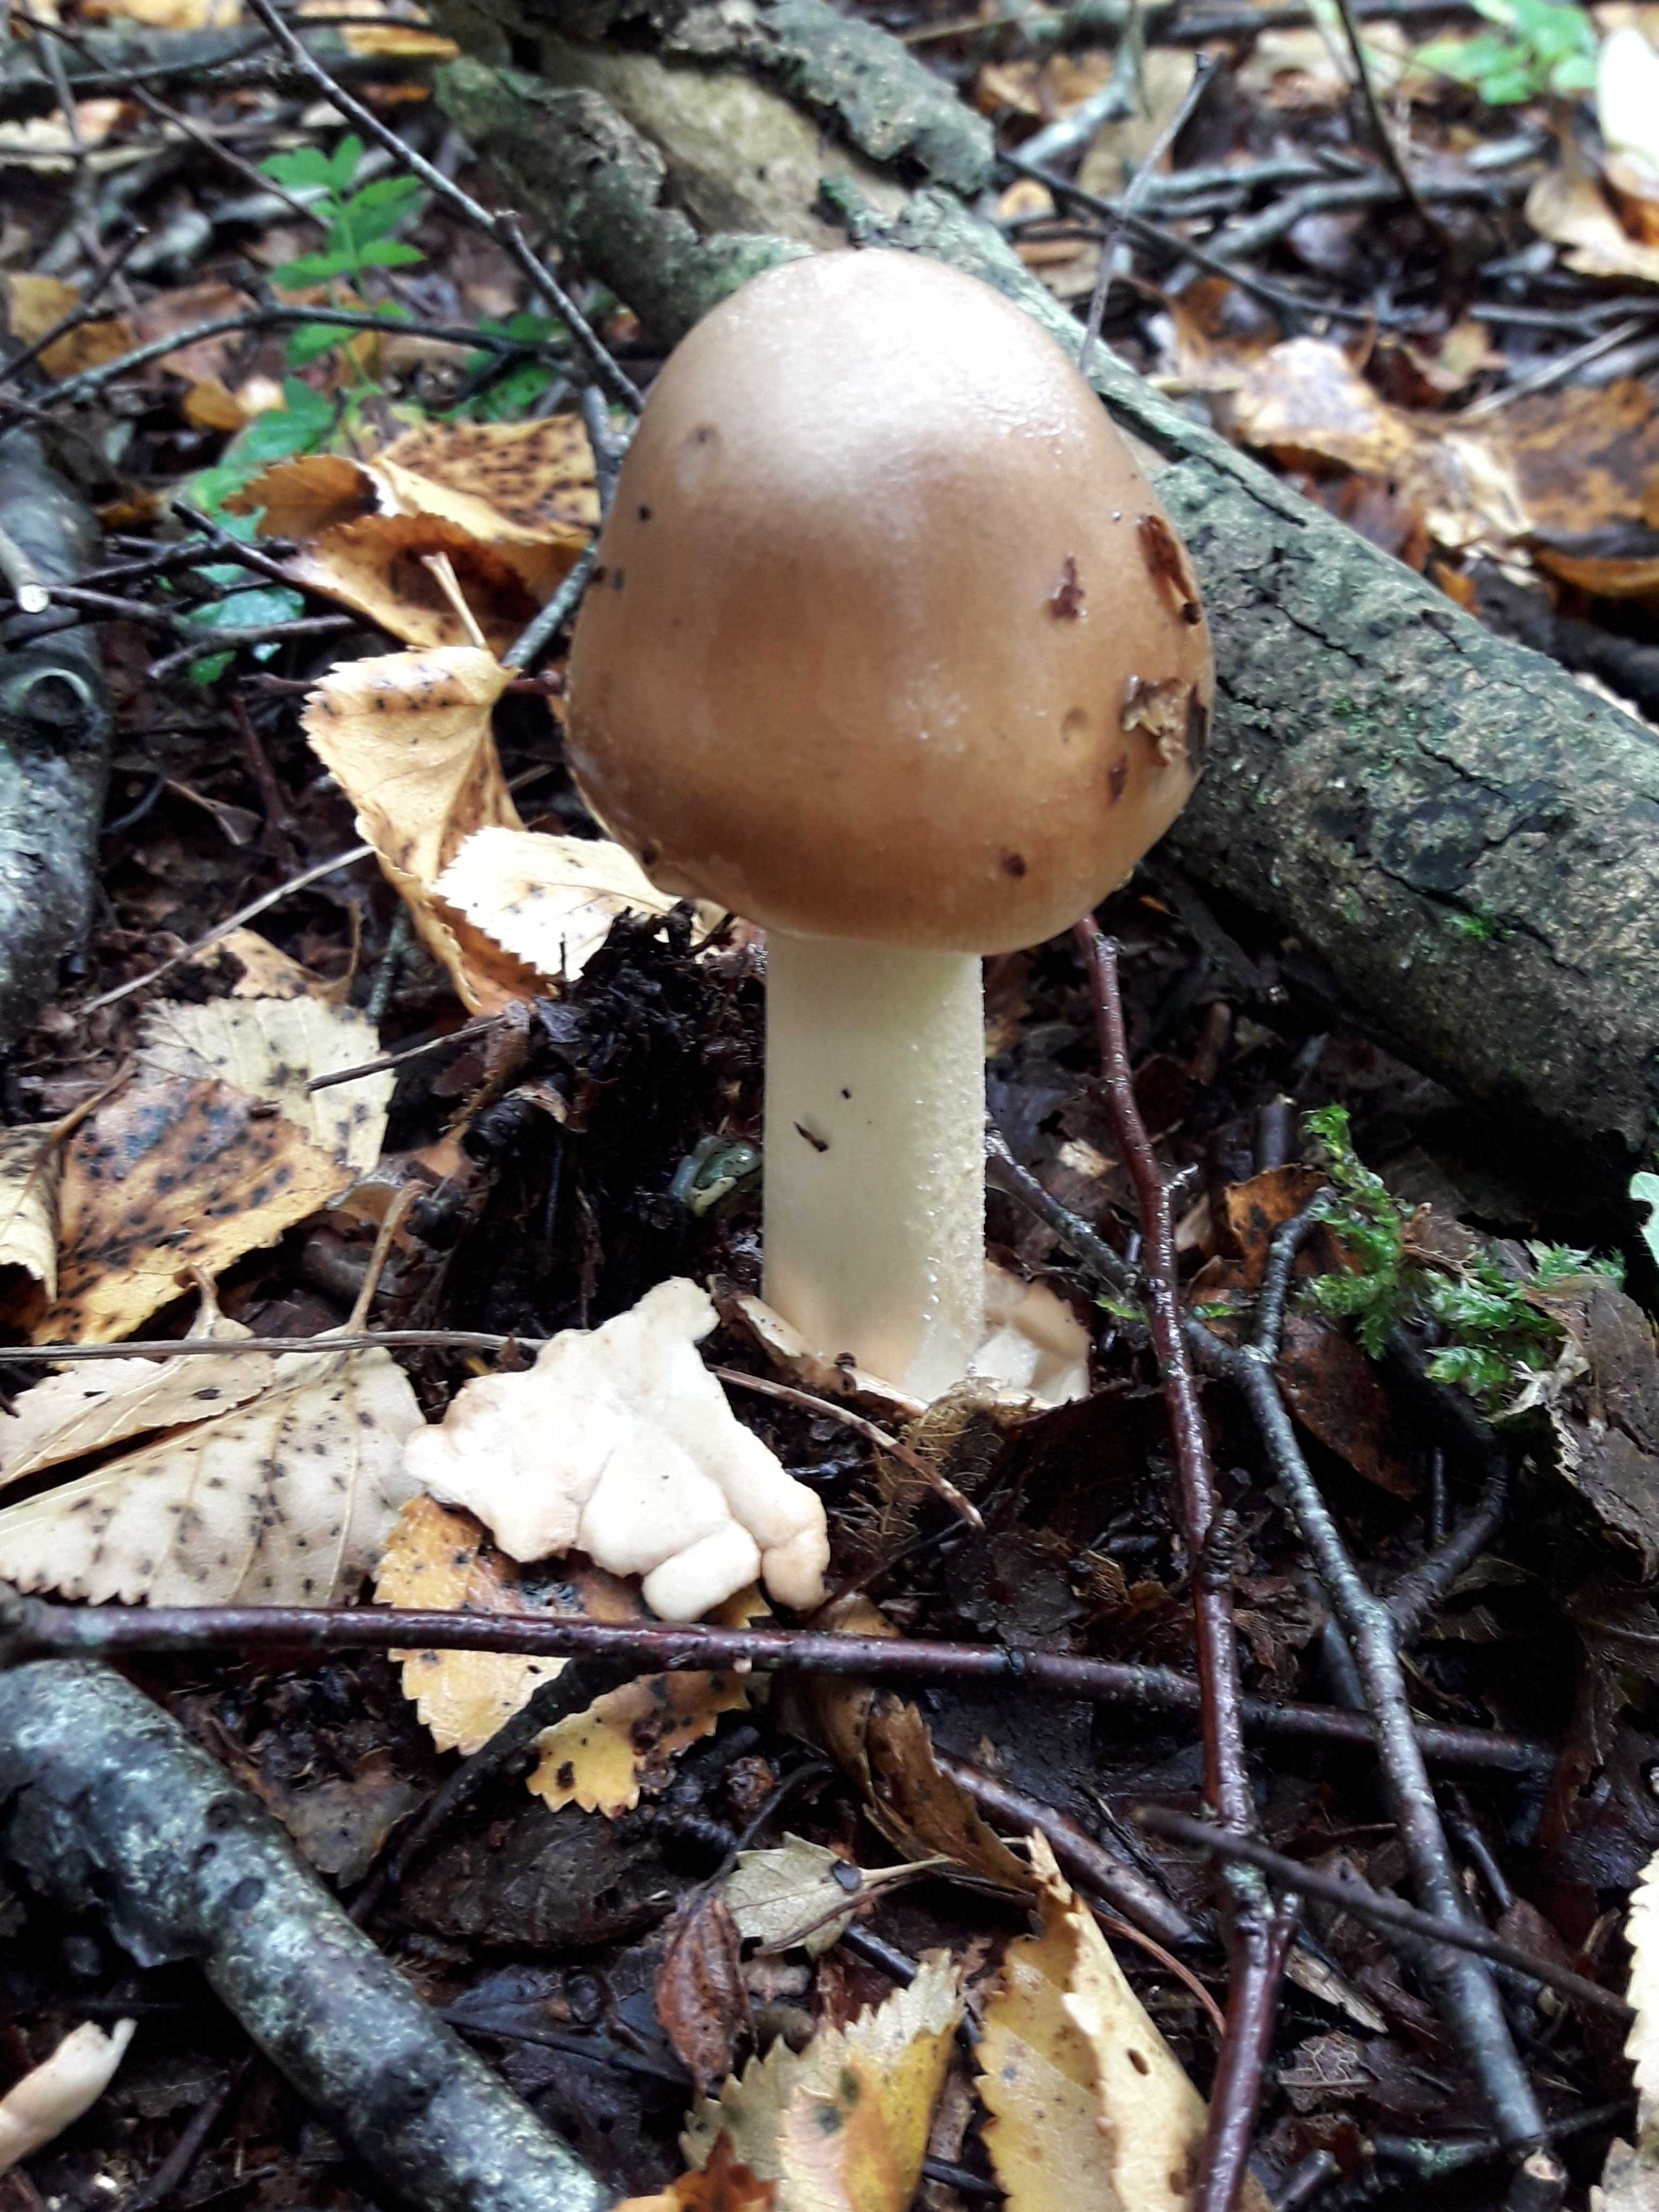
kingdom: Fungi
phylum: Basidiomycota
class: Agaricomycetes
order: Agaricales
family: Amanitaceae
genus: Amanita
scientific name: Amanita fulva
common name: brun kam-fluesvamp
